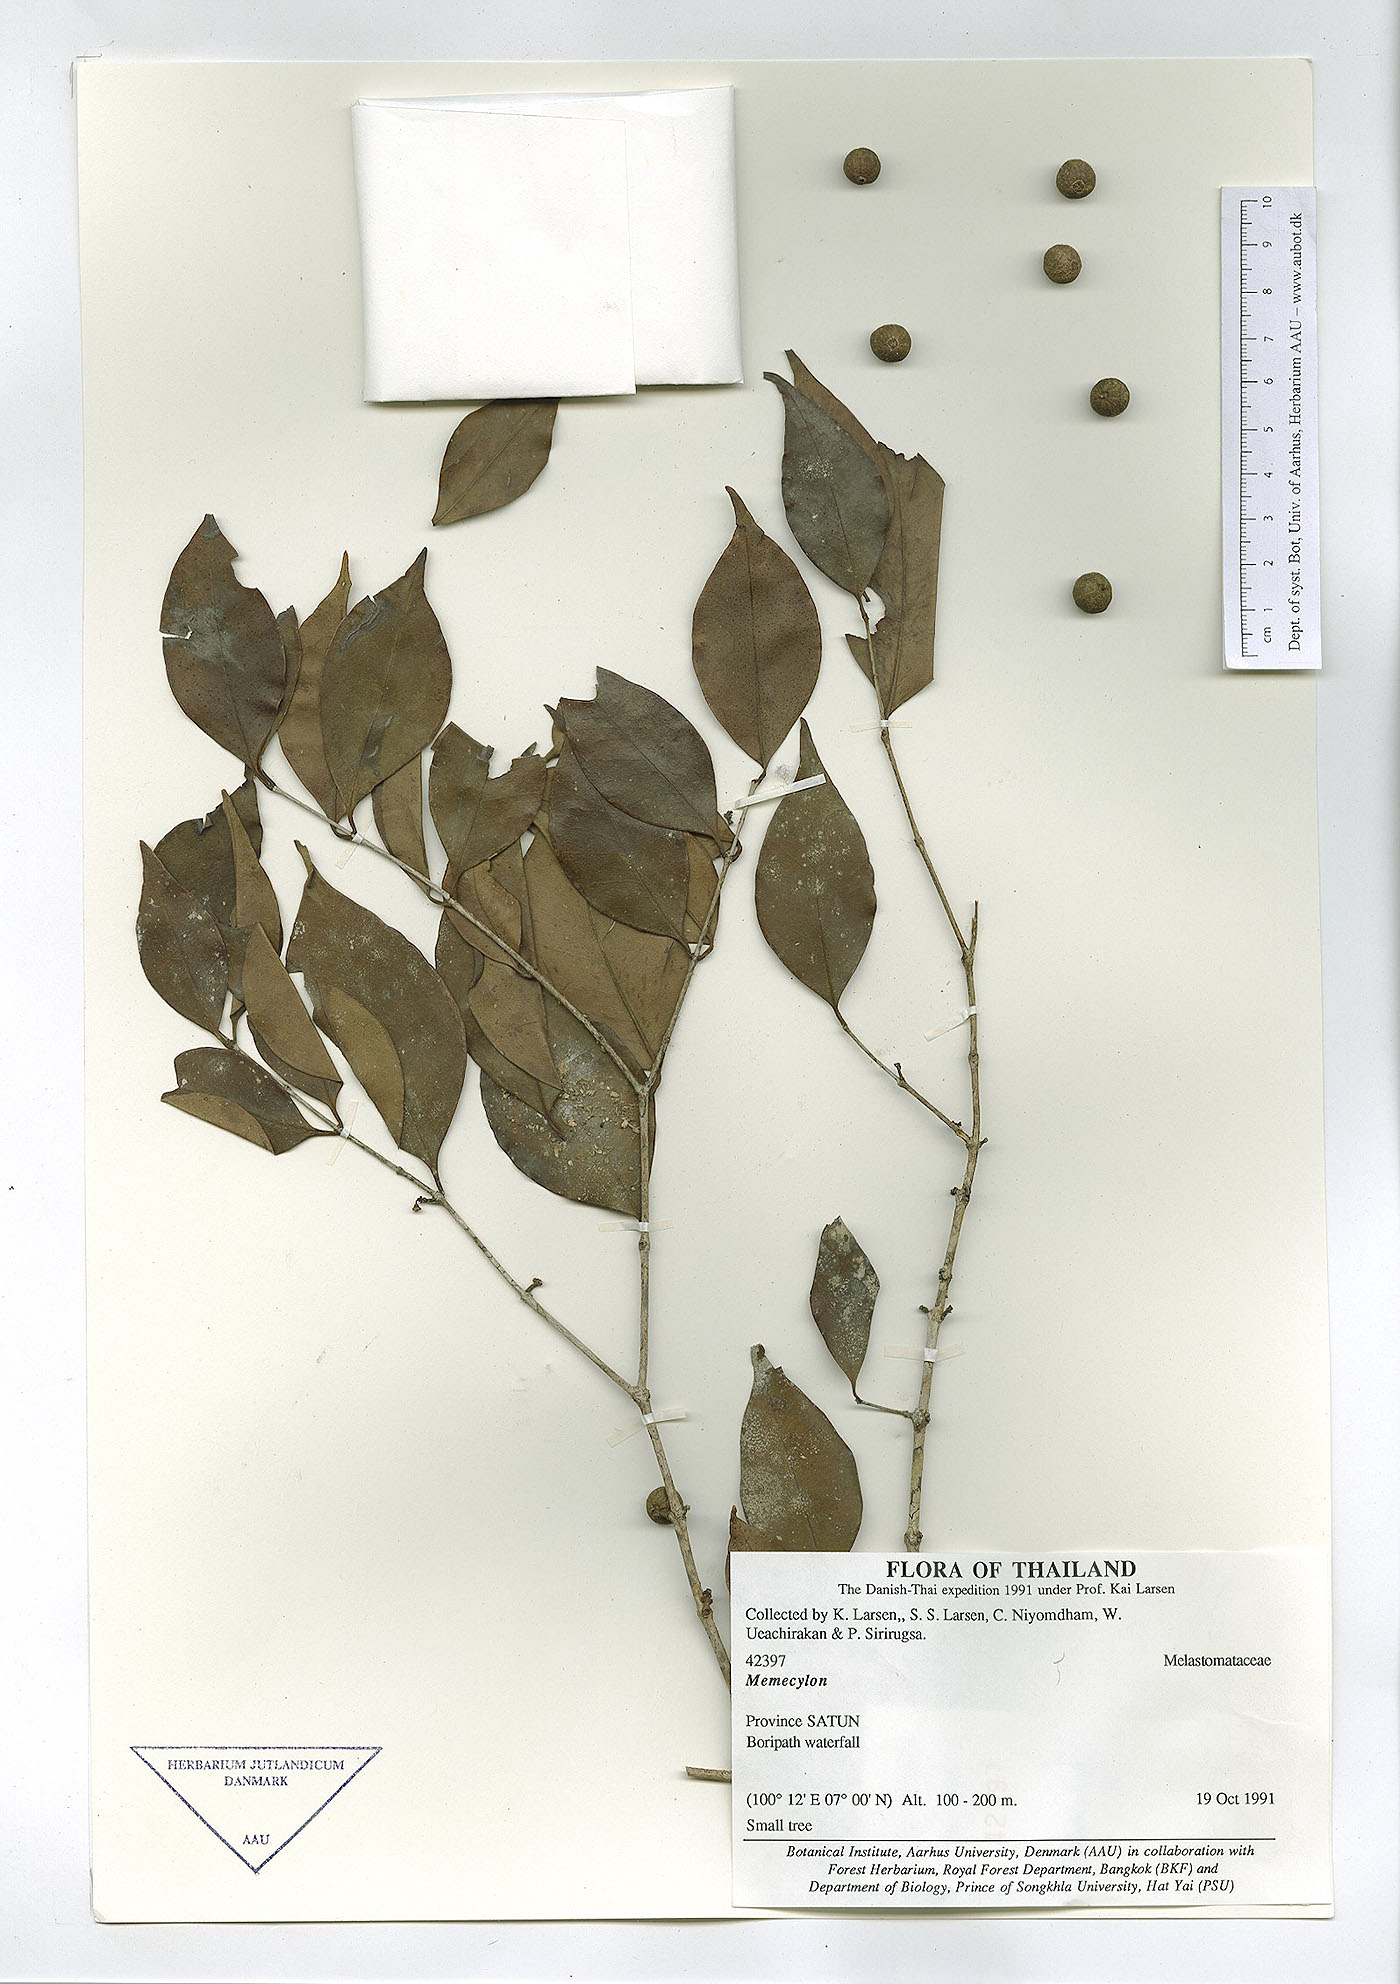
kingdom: Plantae
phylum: Tracheophyta
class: Magnoliopsida
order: Myrtales
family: Melastomataceae
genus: Memecylon
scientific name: Memecylon lilacinum
